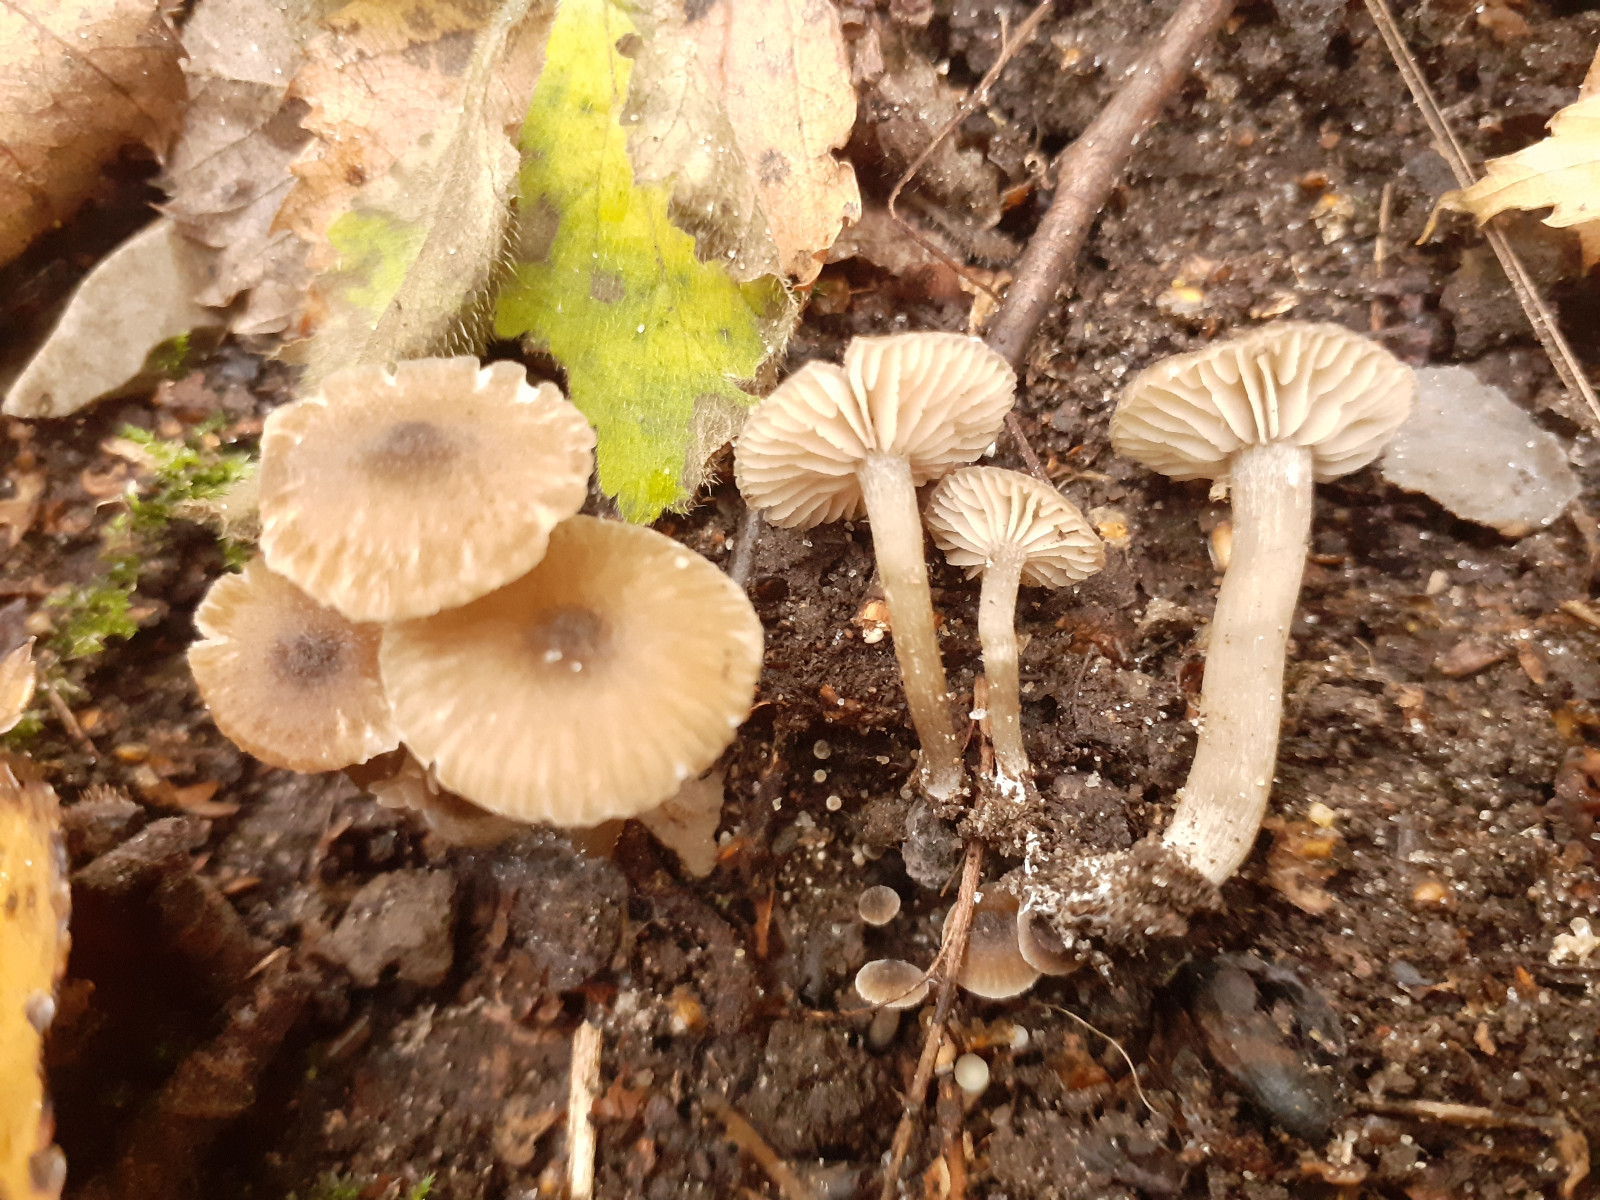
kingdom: Fungi
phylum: Basidiomycota
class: Agaricomycetes
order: Agaricales
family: Entolomataceae
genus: Entoloma
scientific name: Entoloma
